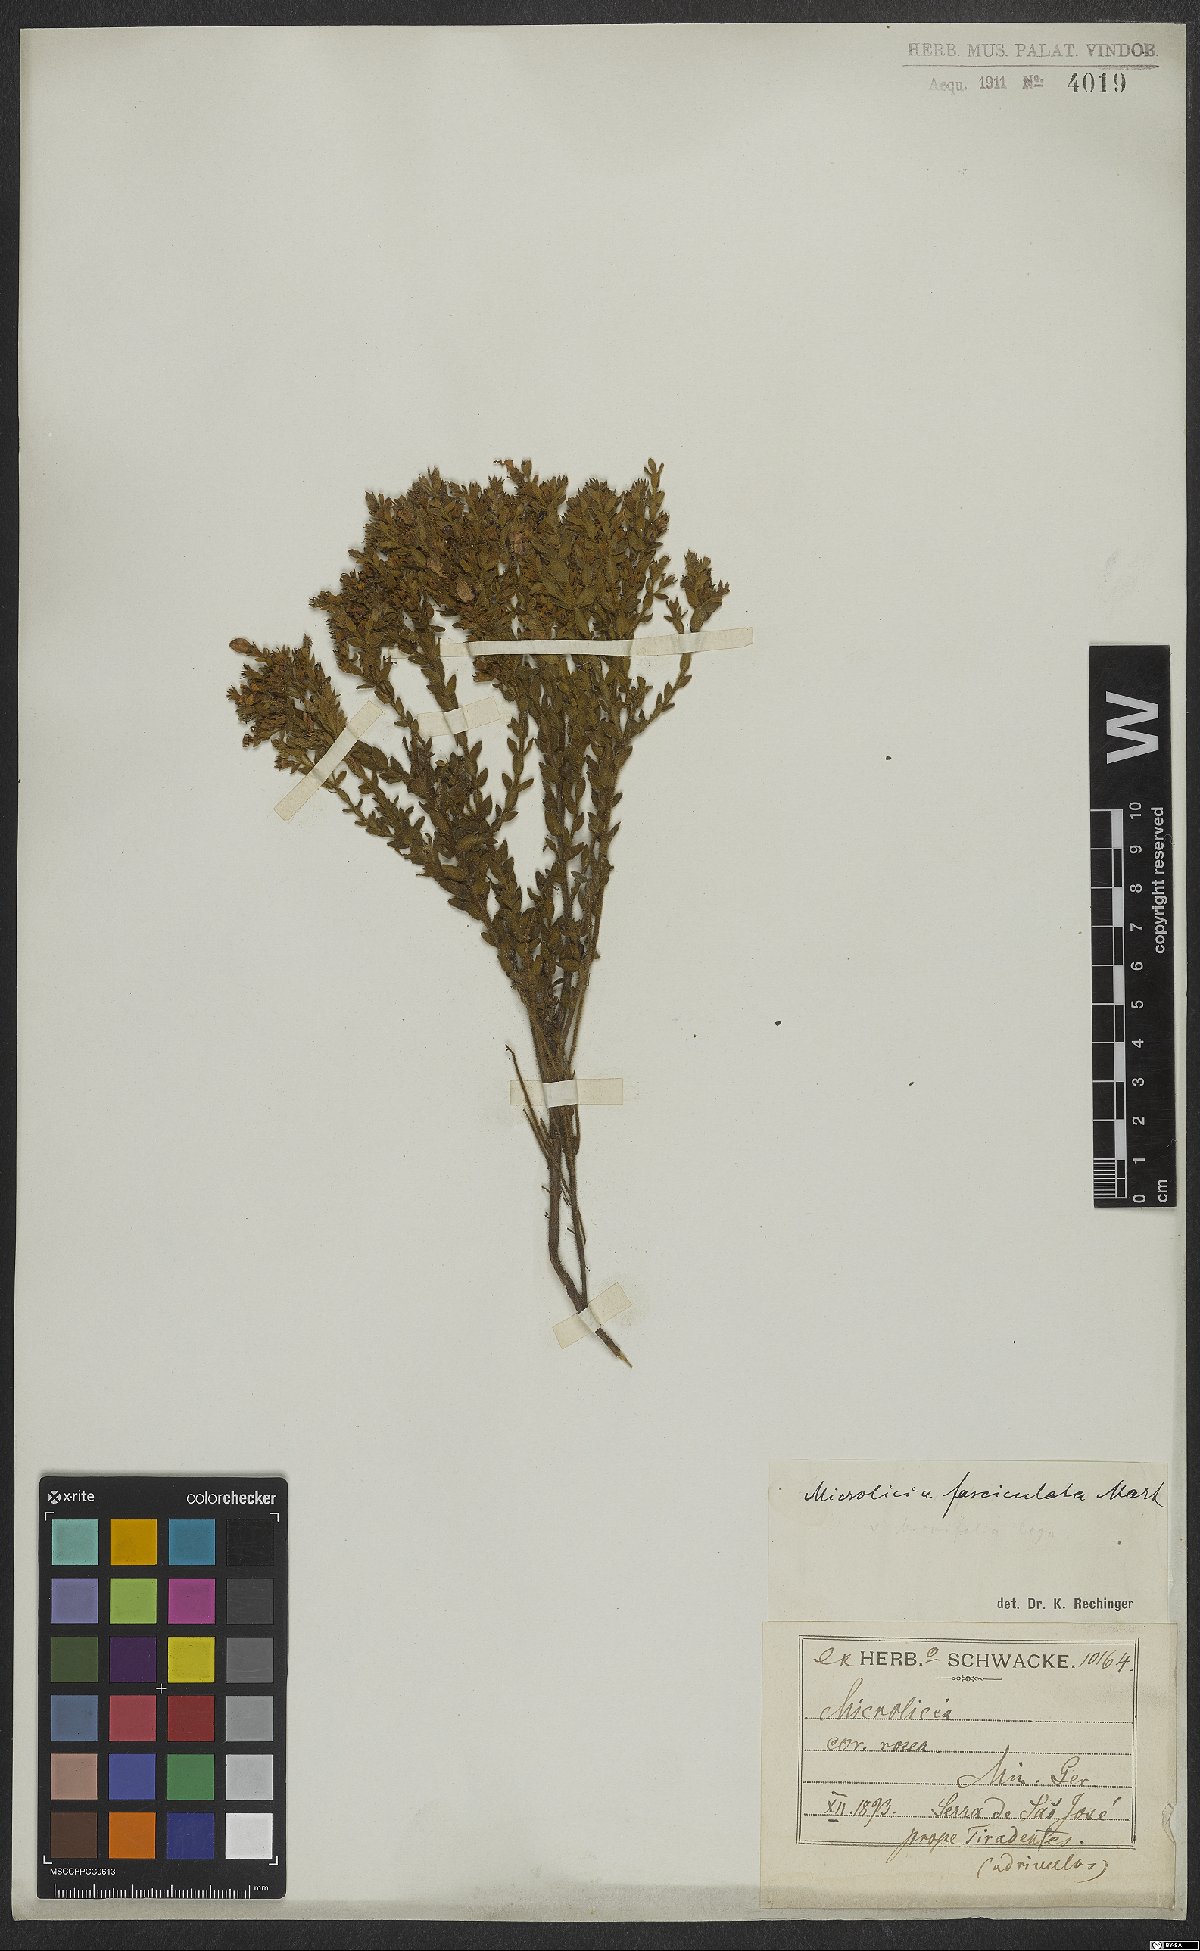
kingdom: Plantae
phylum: Tracheophyta
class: Magnoliopsida
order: Myrtales
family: Melastomataceae
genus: Microlicia
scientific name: Microlicia fasciculata
